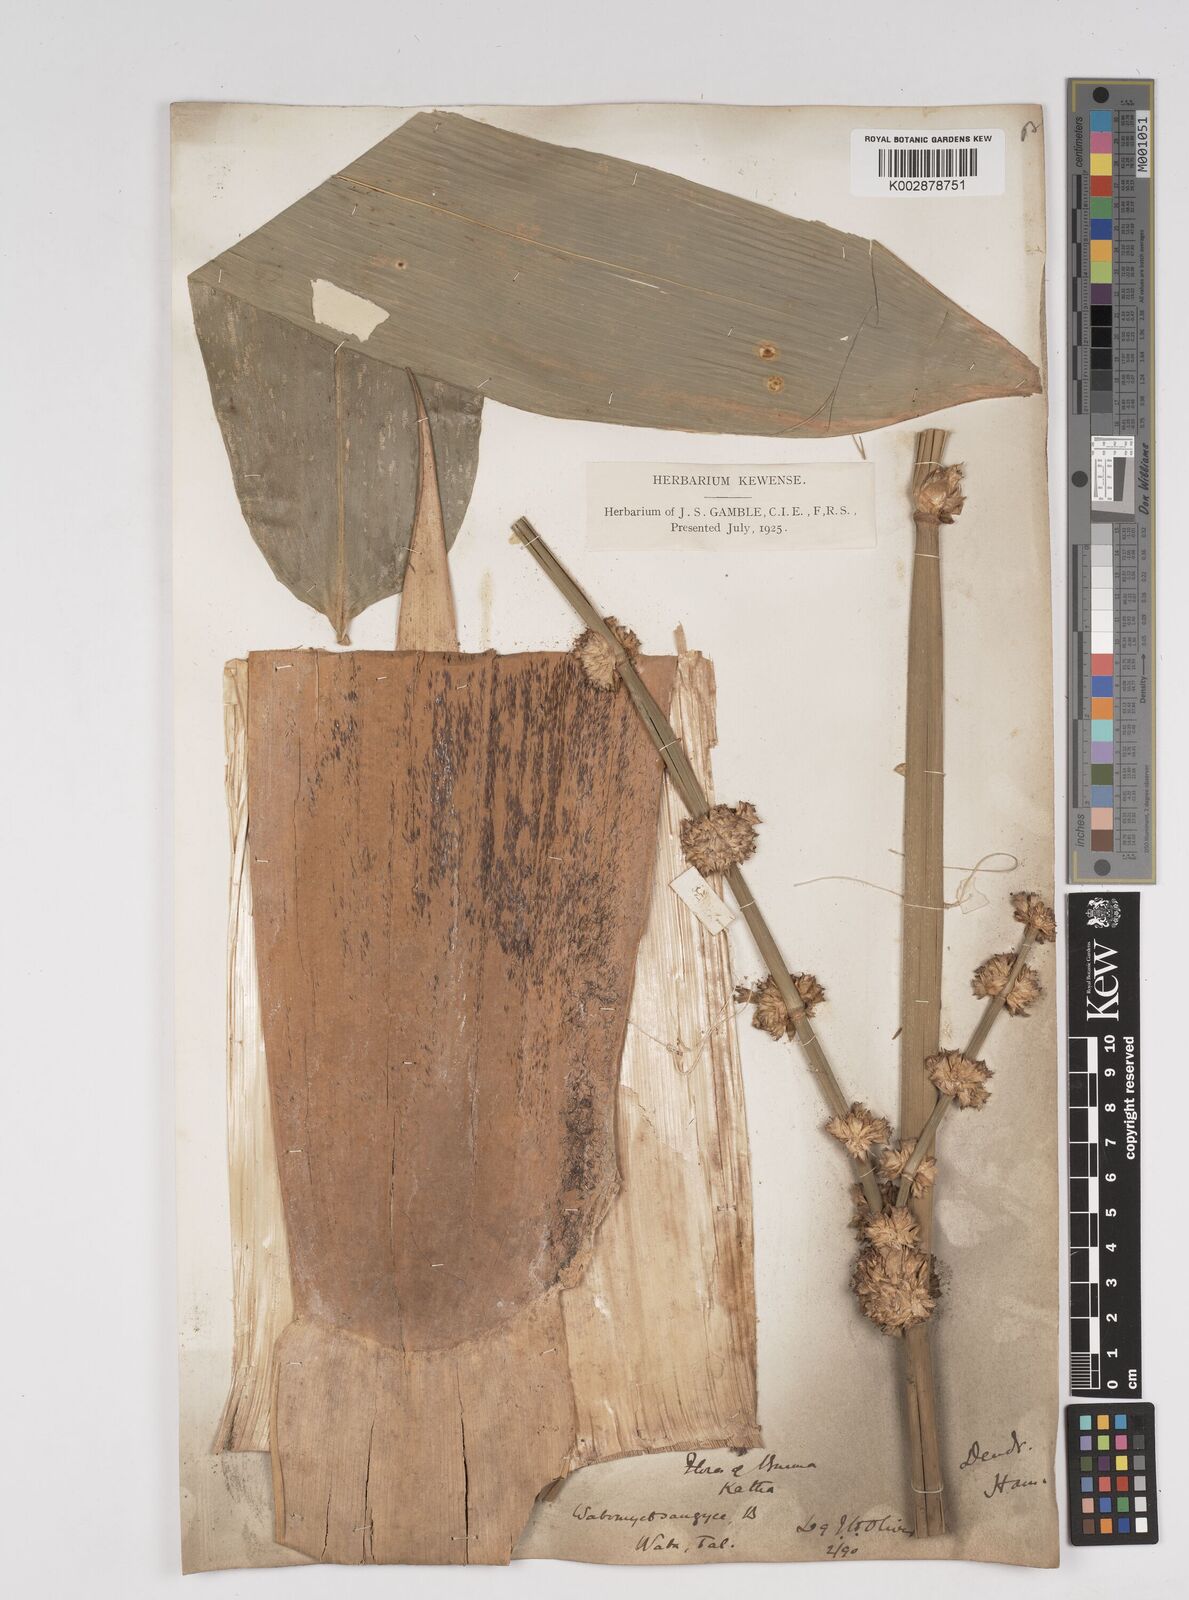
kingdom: Plantae
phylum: Tracheophyta
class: Liliopsida
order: Poales
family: Poaceae
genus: Dendrocalamus
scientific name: Dendrocalamus hamiltonii
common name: Tama bamboo
